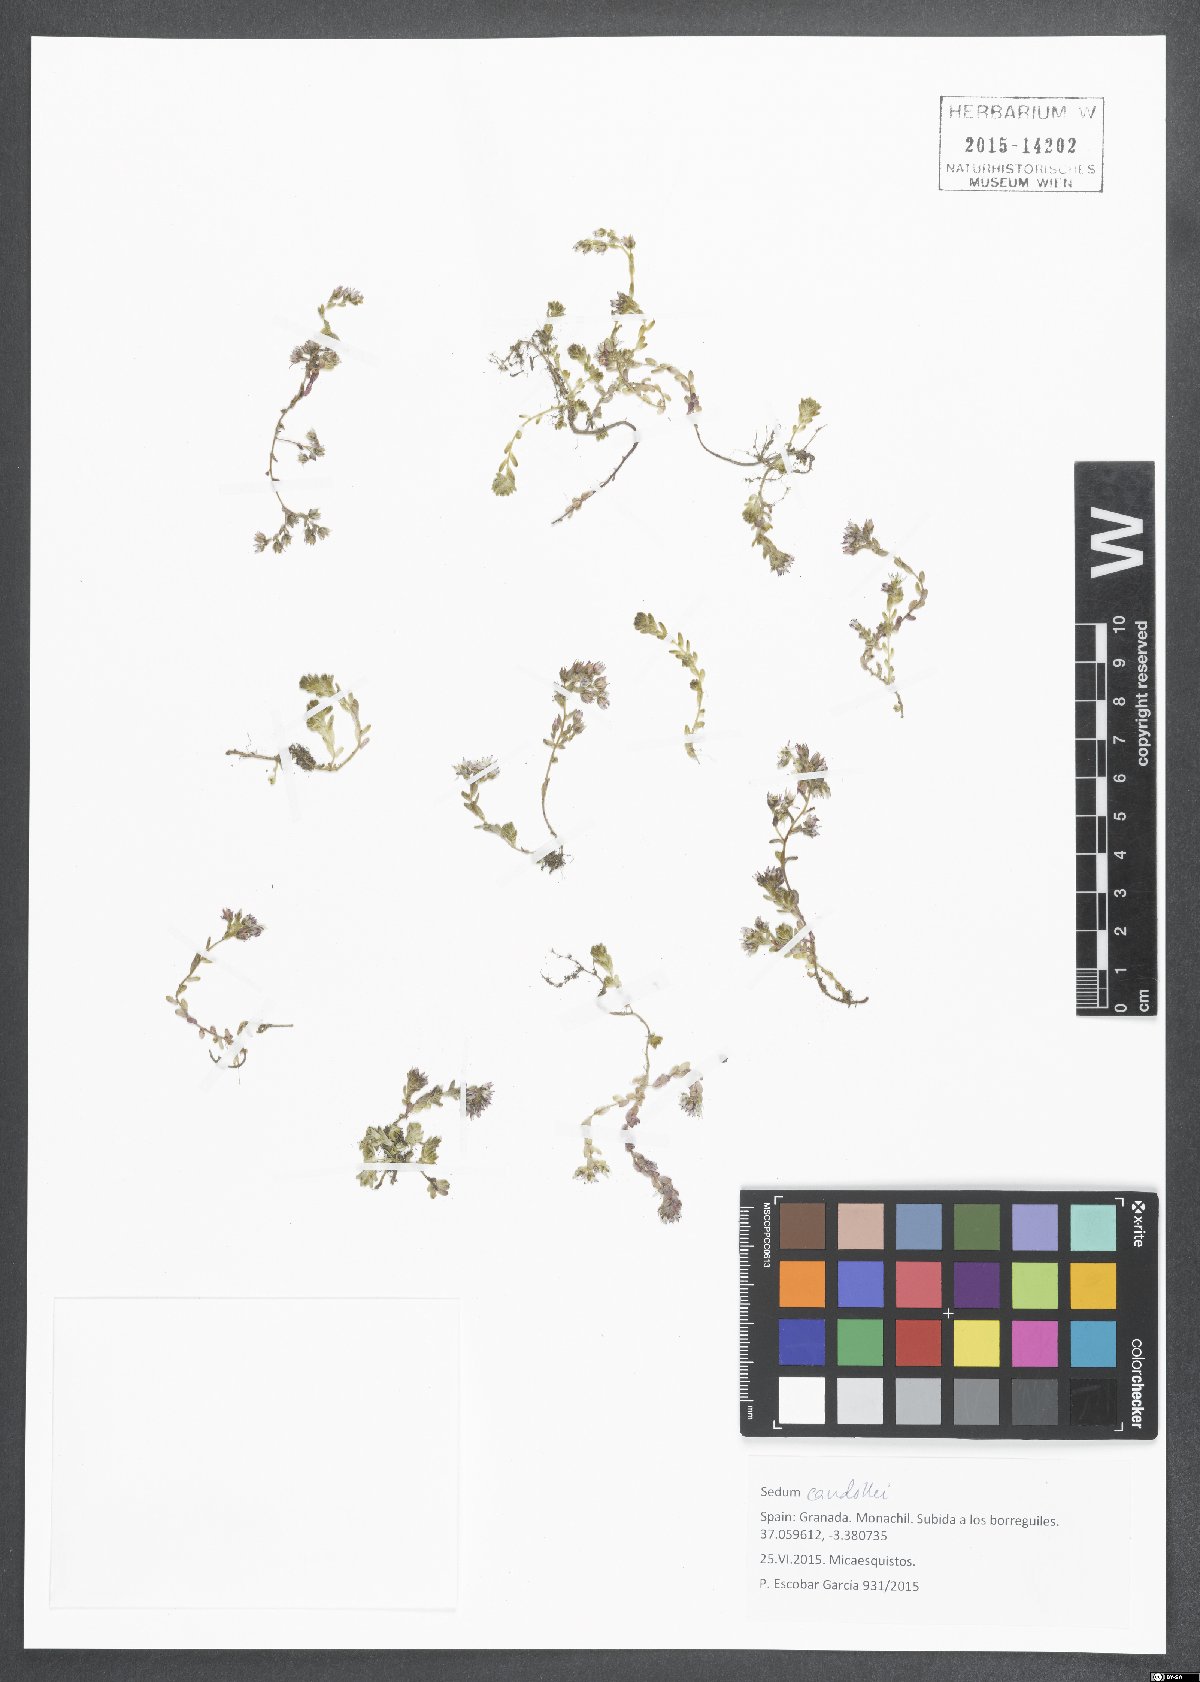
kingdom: Plantae
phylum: Tracheophyta
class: Magnoliopsida
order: Saxifragales
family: Crassulaceae
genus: Sedum
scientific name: Sedum candollei
